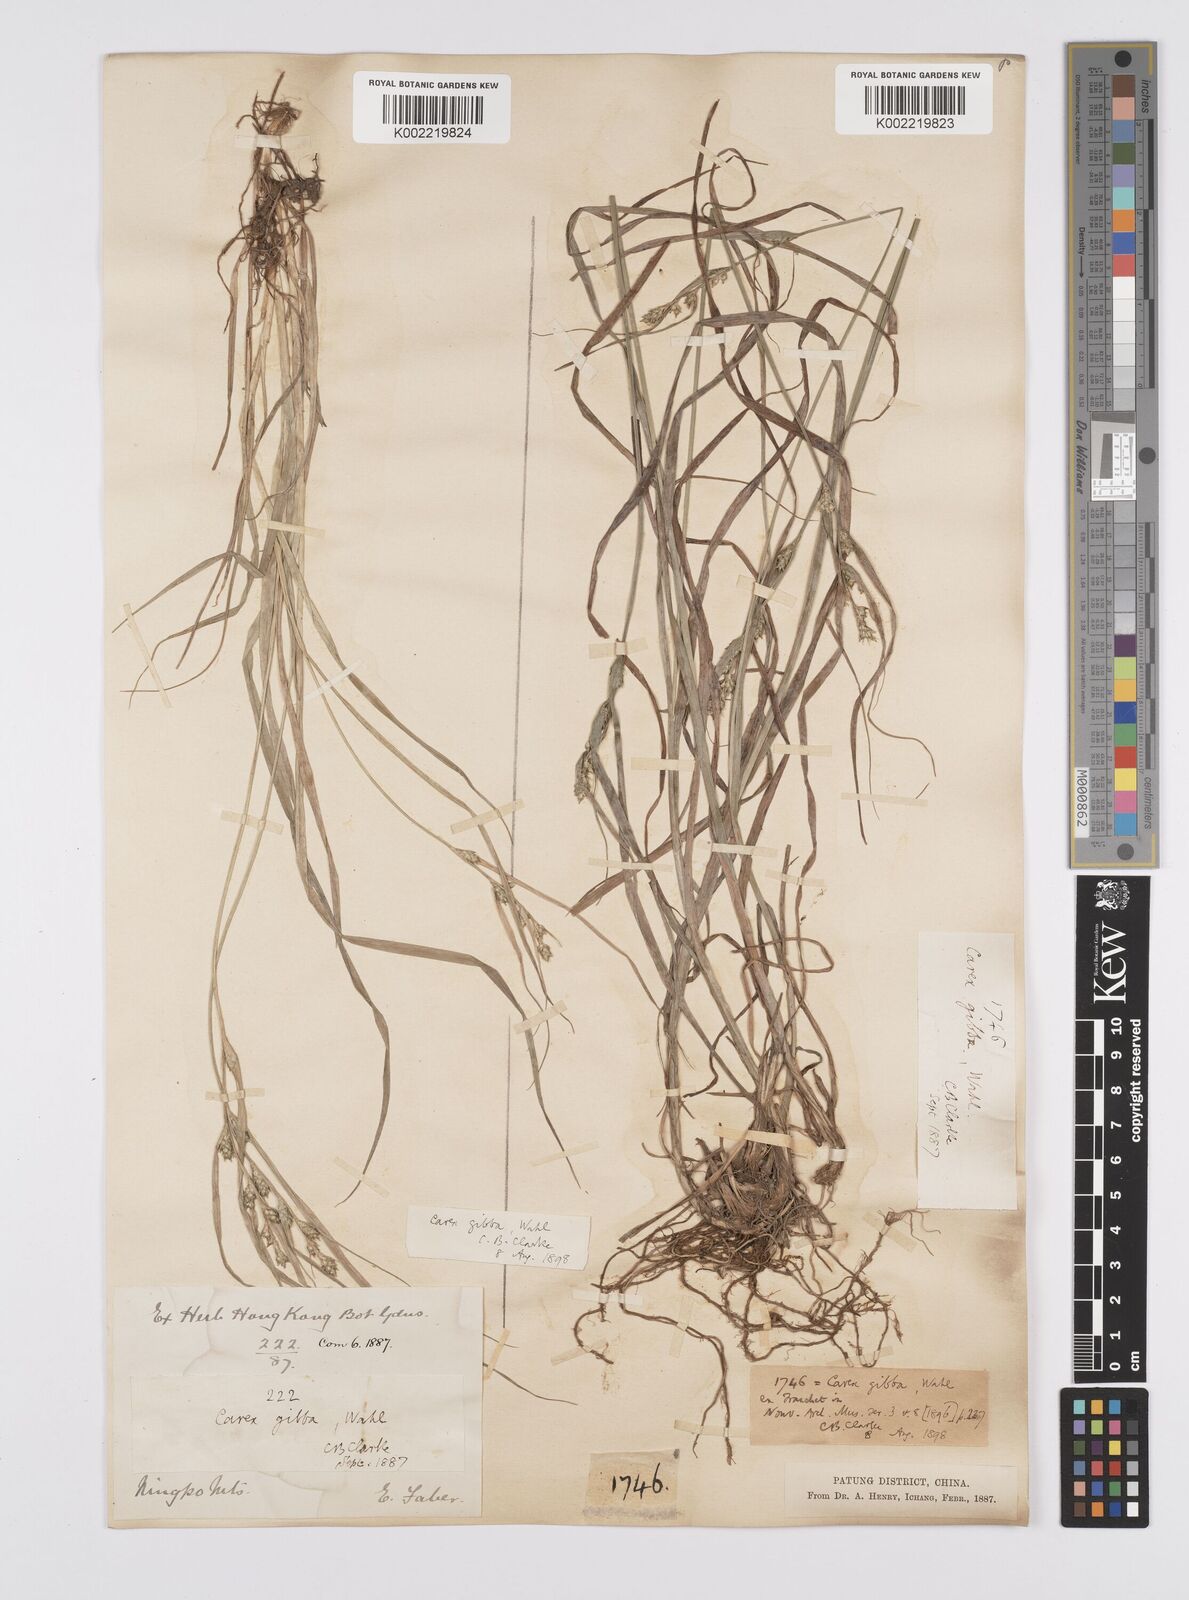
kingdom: Plantae
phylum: Tracheophyta
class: Liliopsida
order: Poales
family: Cyperaceae
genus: Carex
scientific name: Carex gibba
